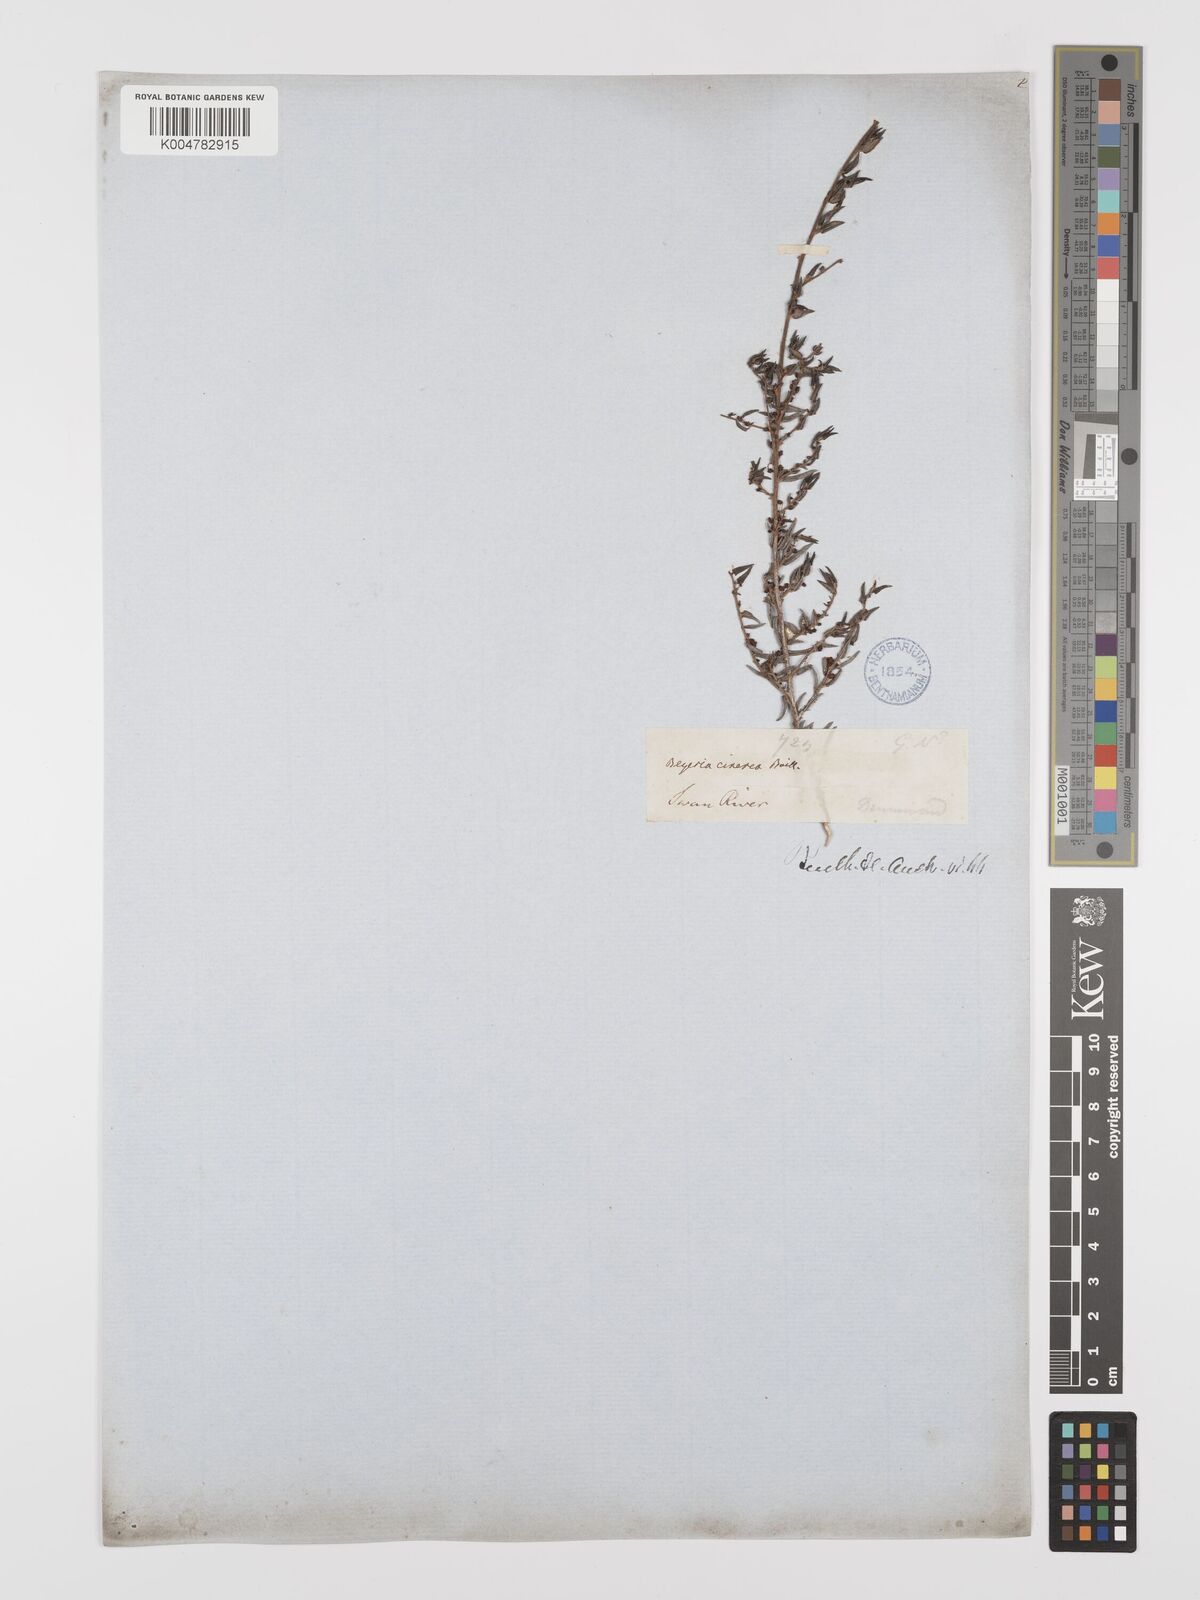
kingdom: Plantae
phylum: Tracheophyta
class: Magnoliopsida
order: Malpighiales
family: Euphorbiaceae
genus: Beyeria
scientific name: Beyeria cinerea
